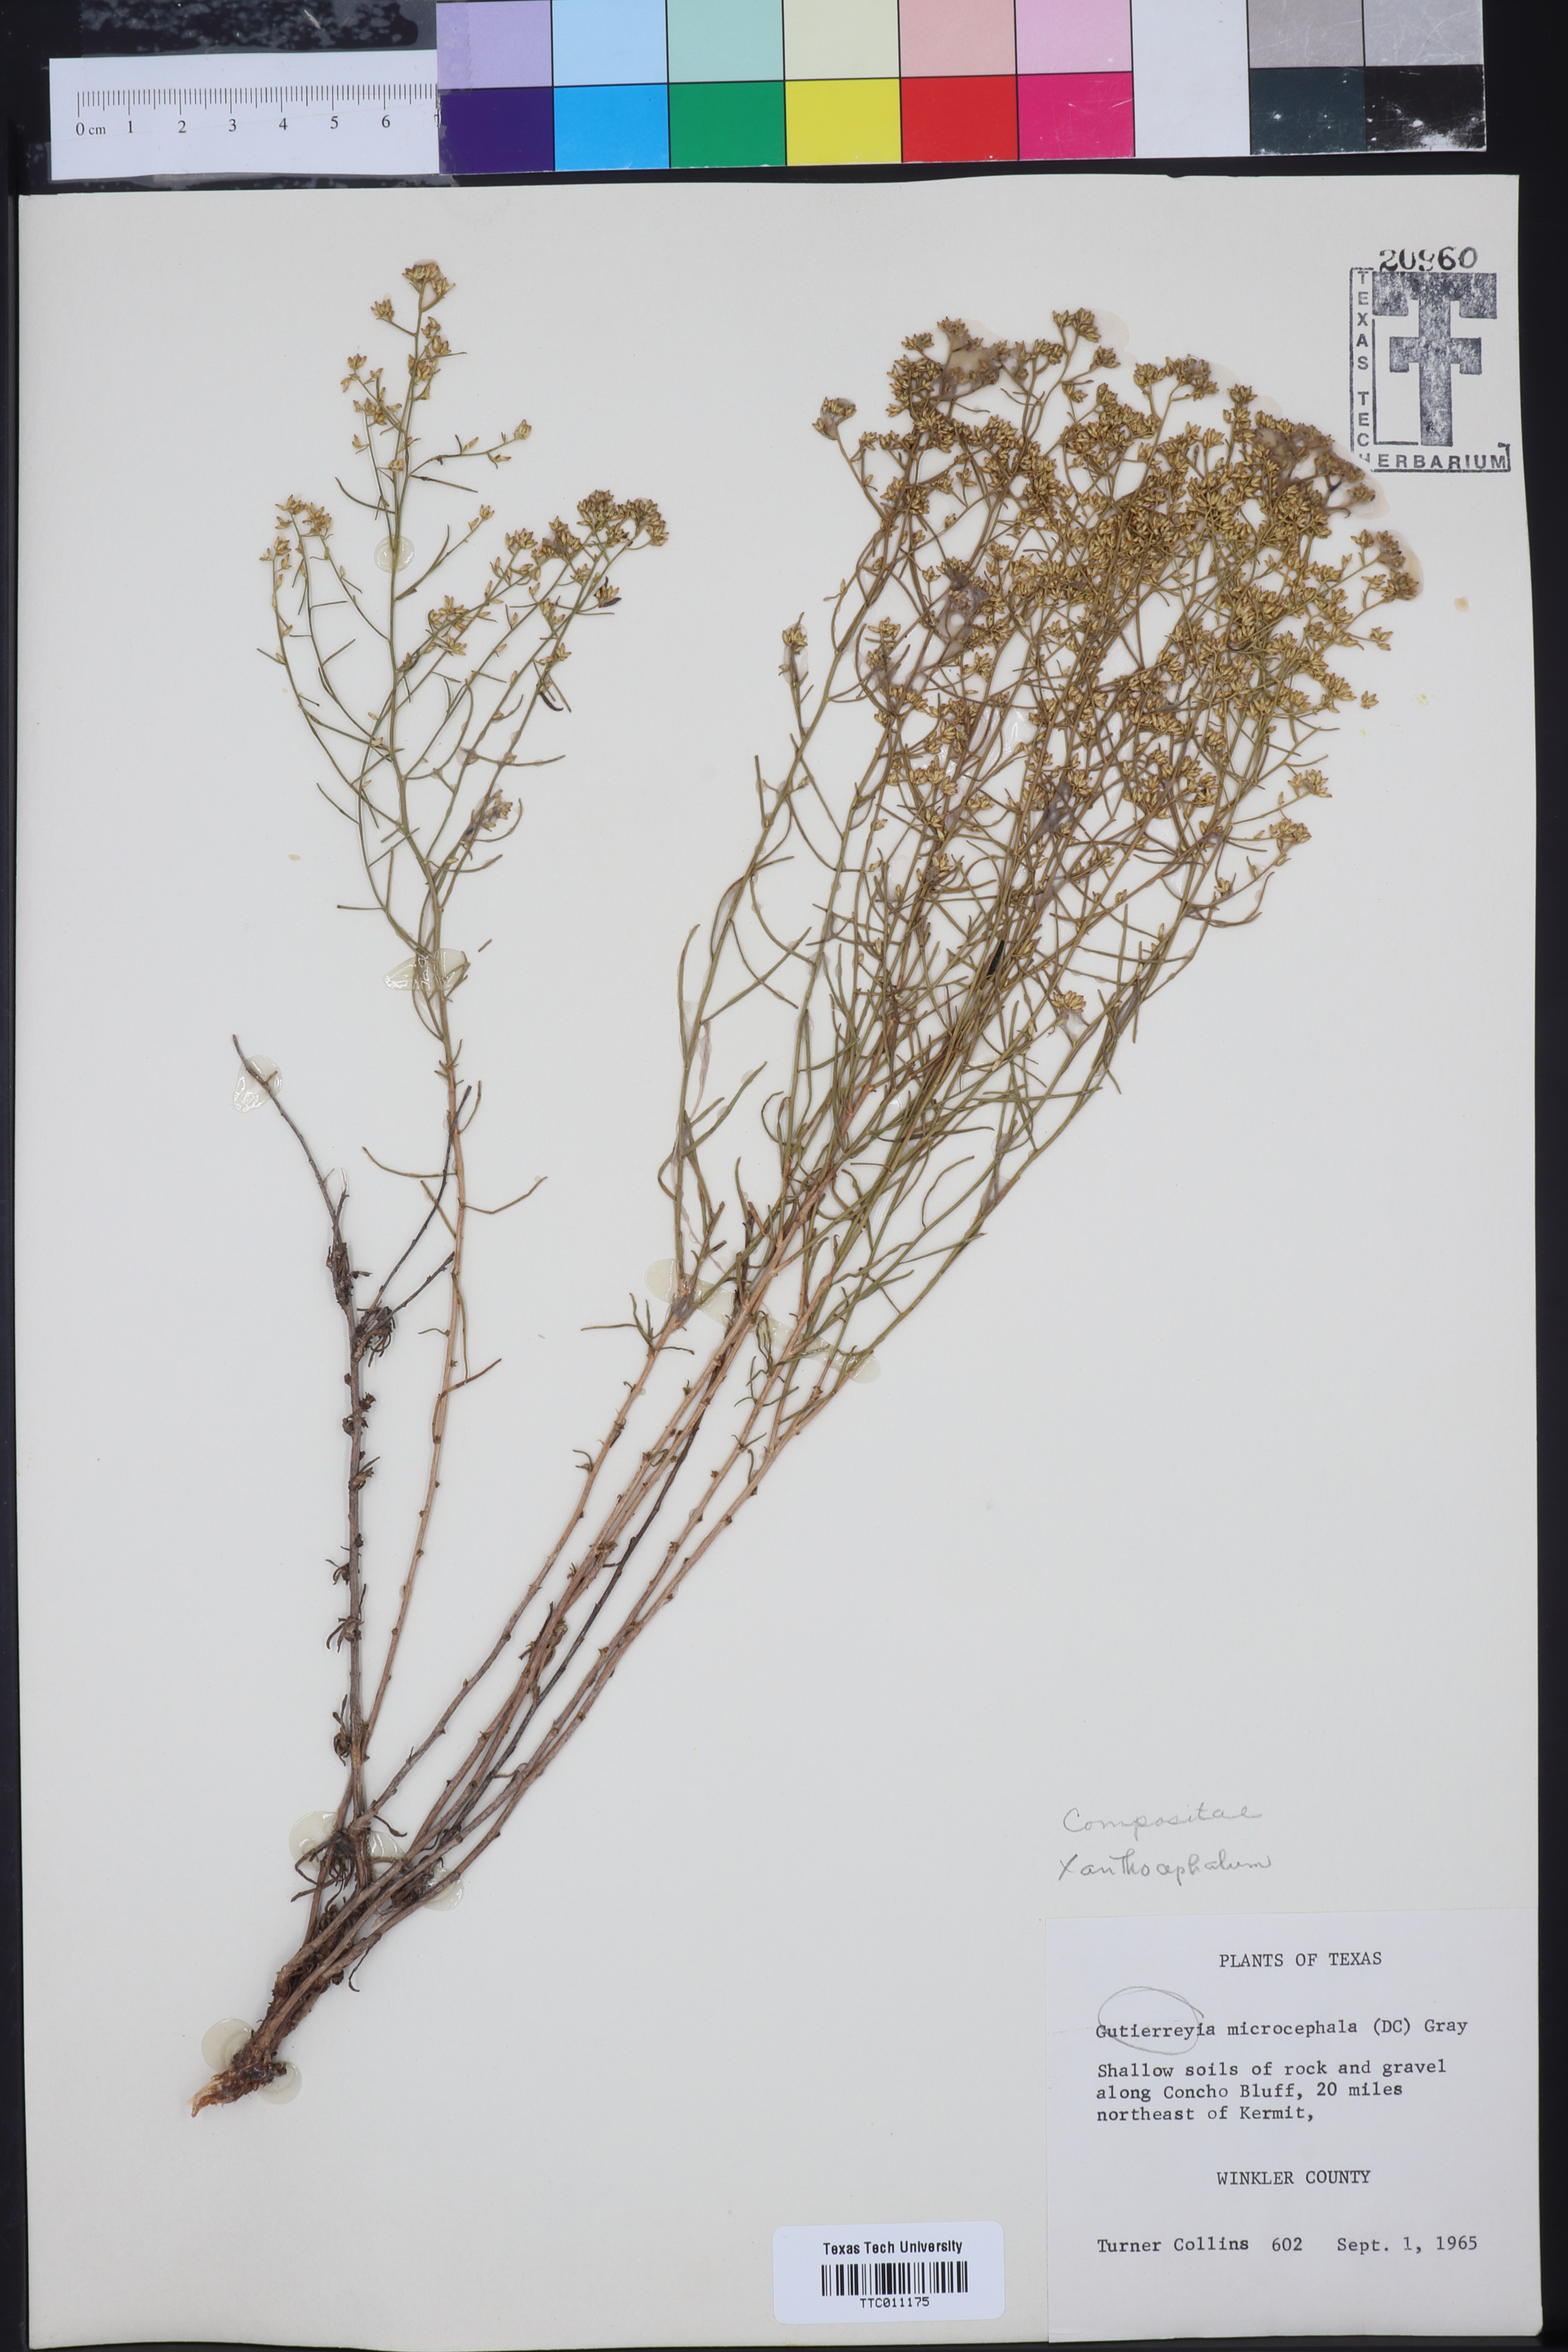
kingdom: Plantae
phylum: Tracheophyta
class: Magnoliopsida
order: Asterales
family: Asteraceae
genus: Xanthocephalum
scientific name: Xanthocephalum
